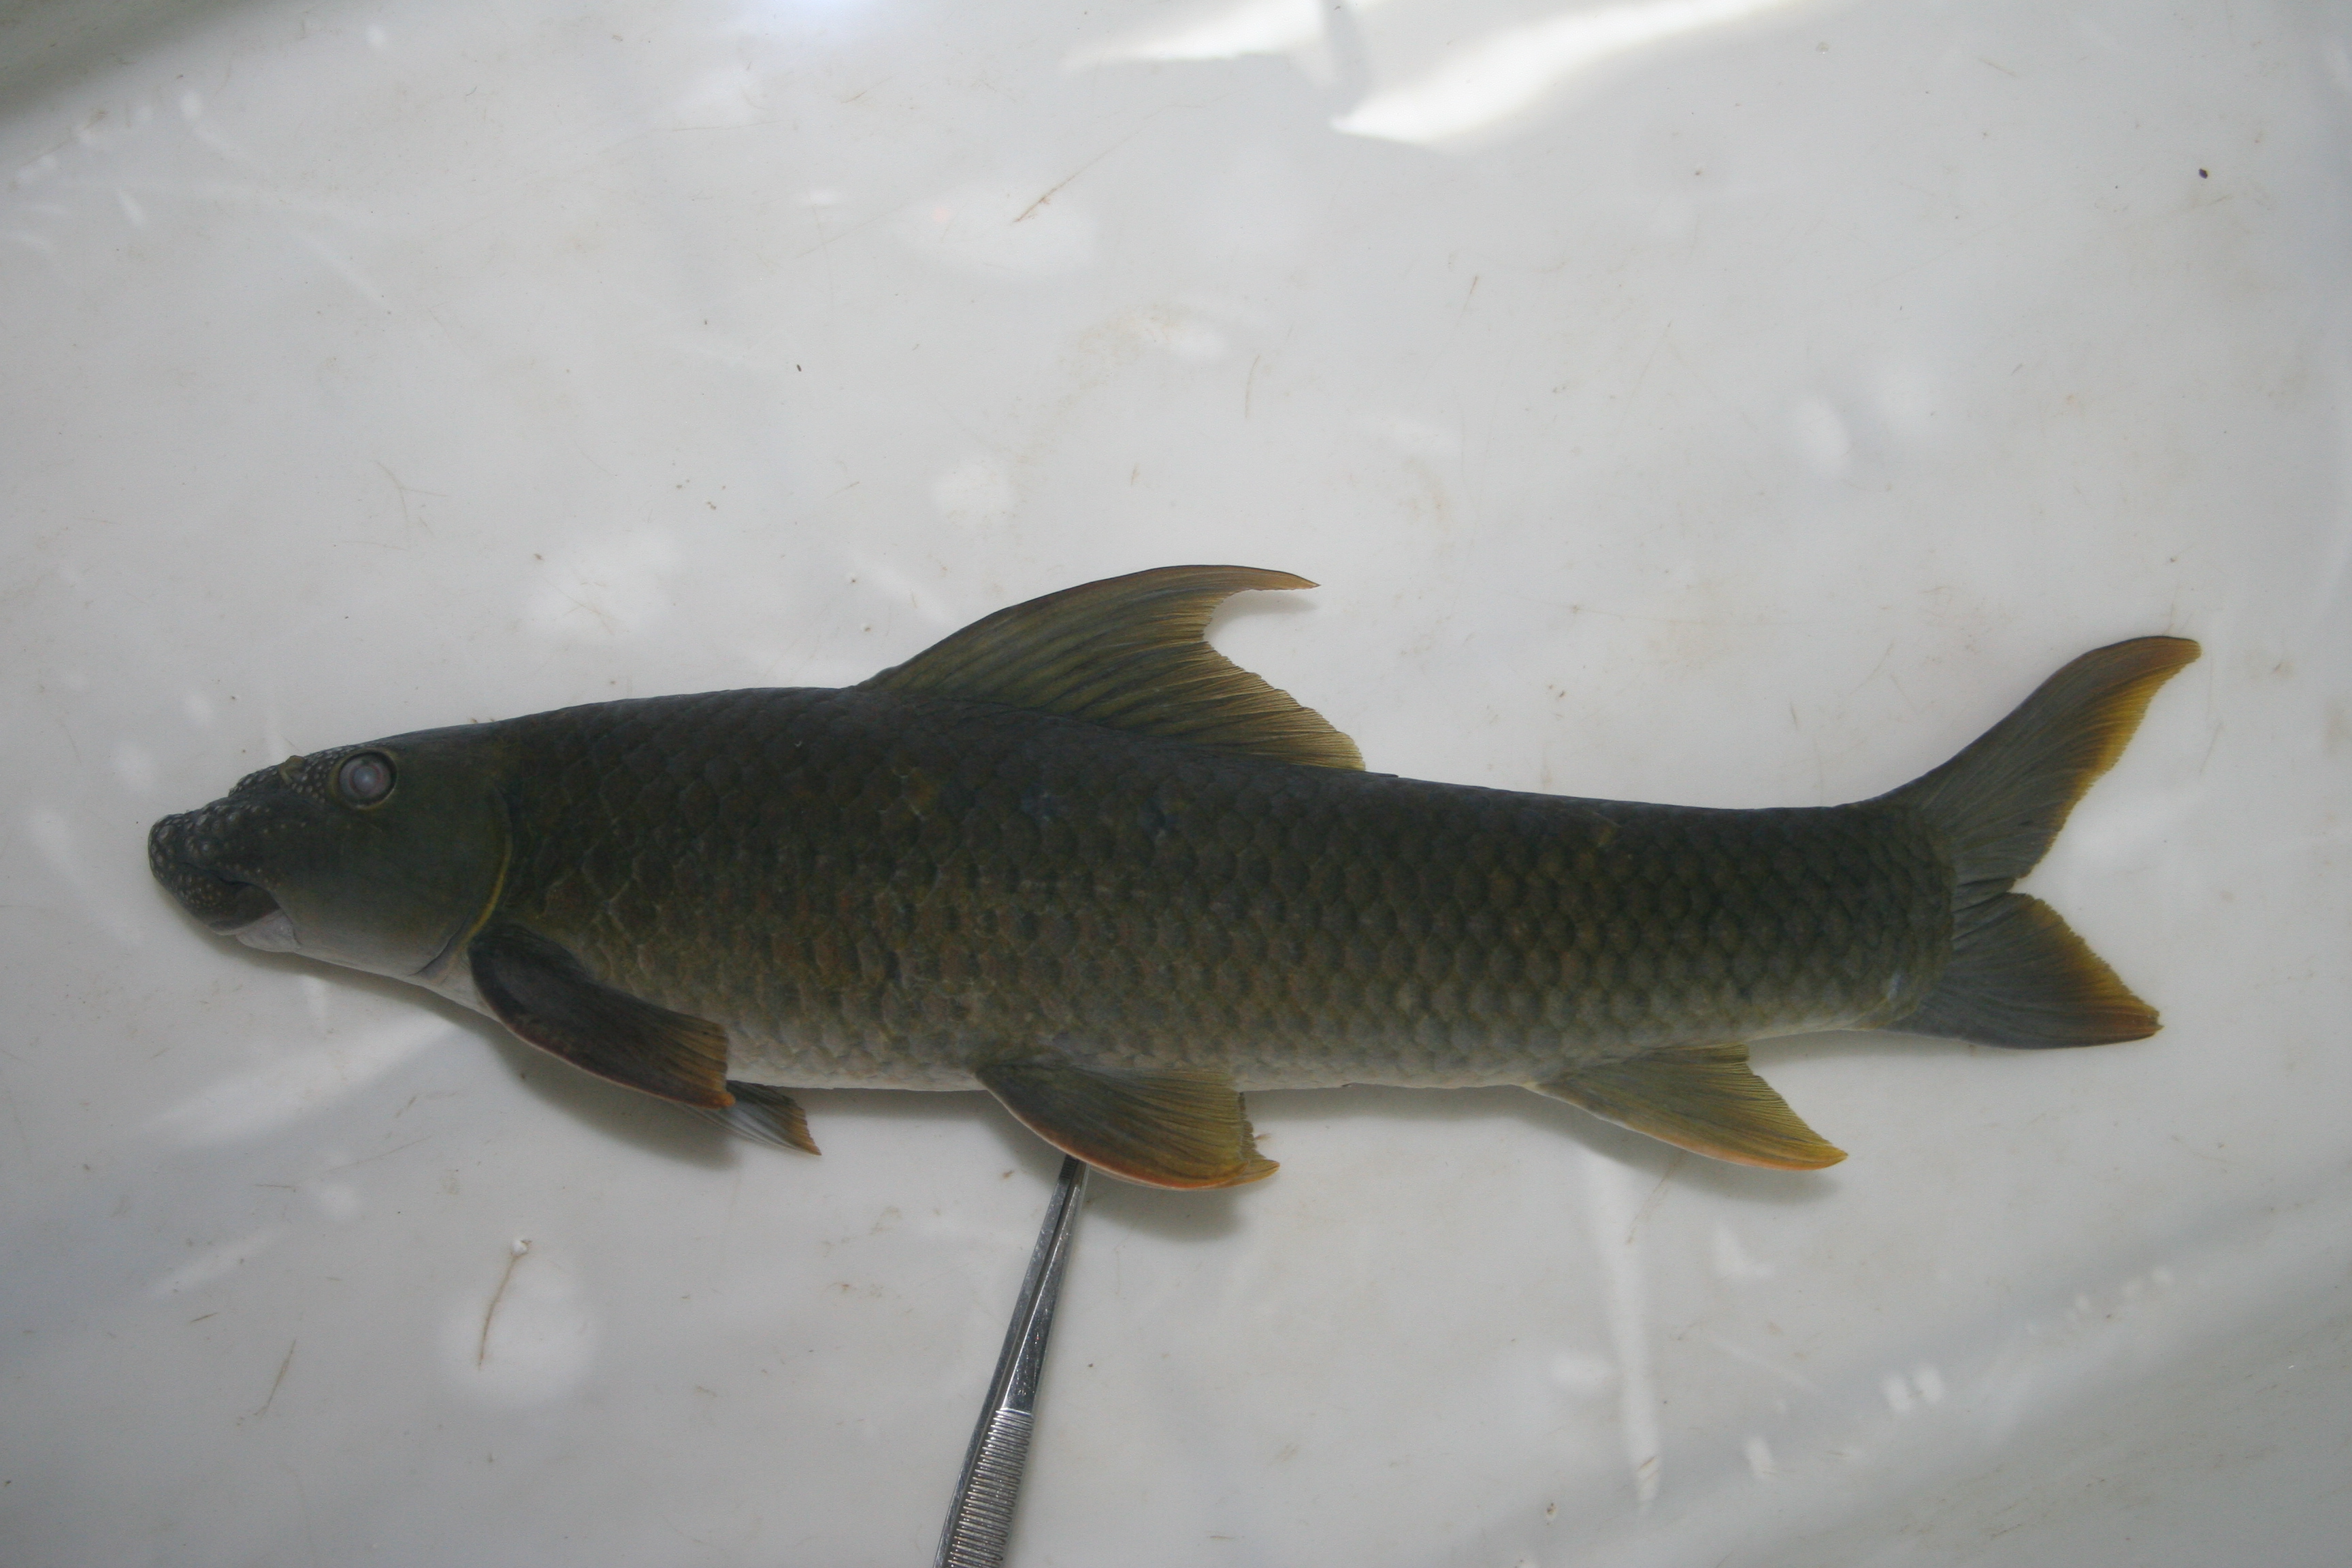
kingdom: Animalia
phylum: Chordata
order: Cypriniformes
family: Cyprinidae
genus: Labeo
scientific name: Labeo
